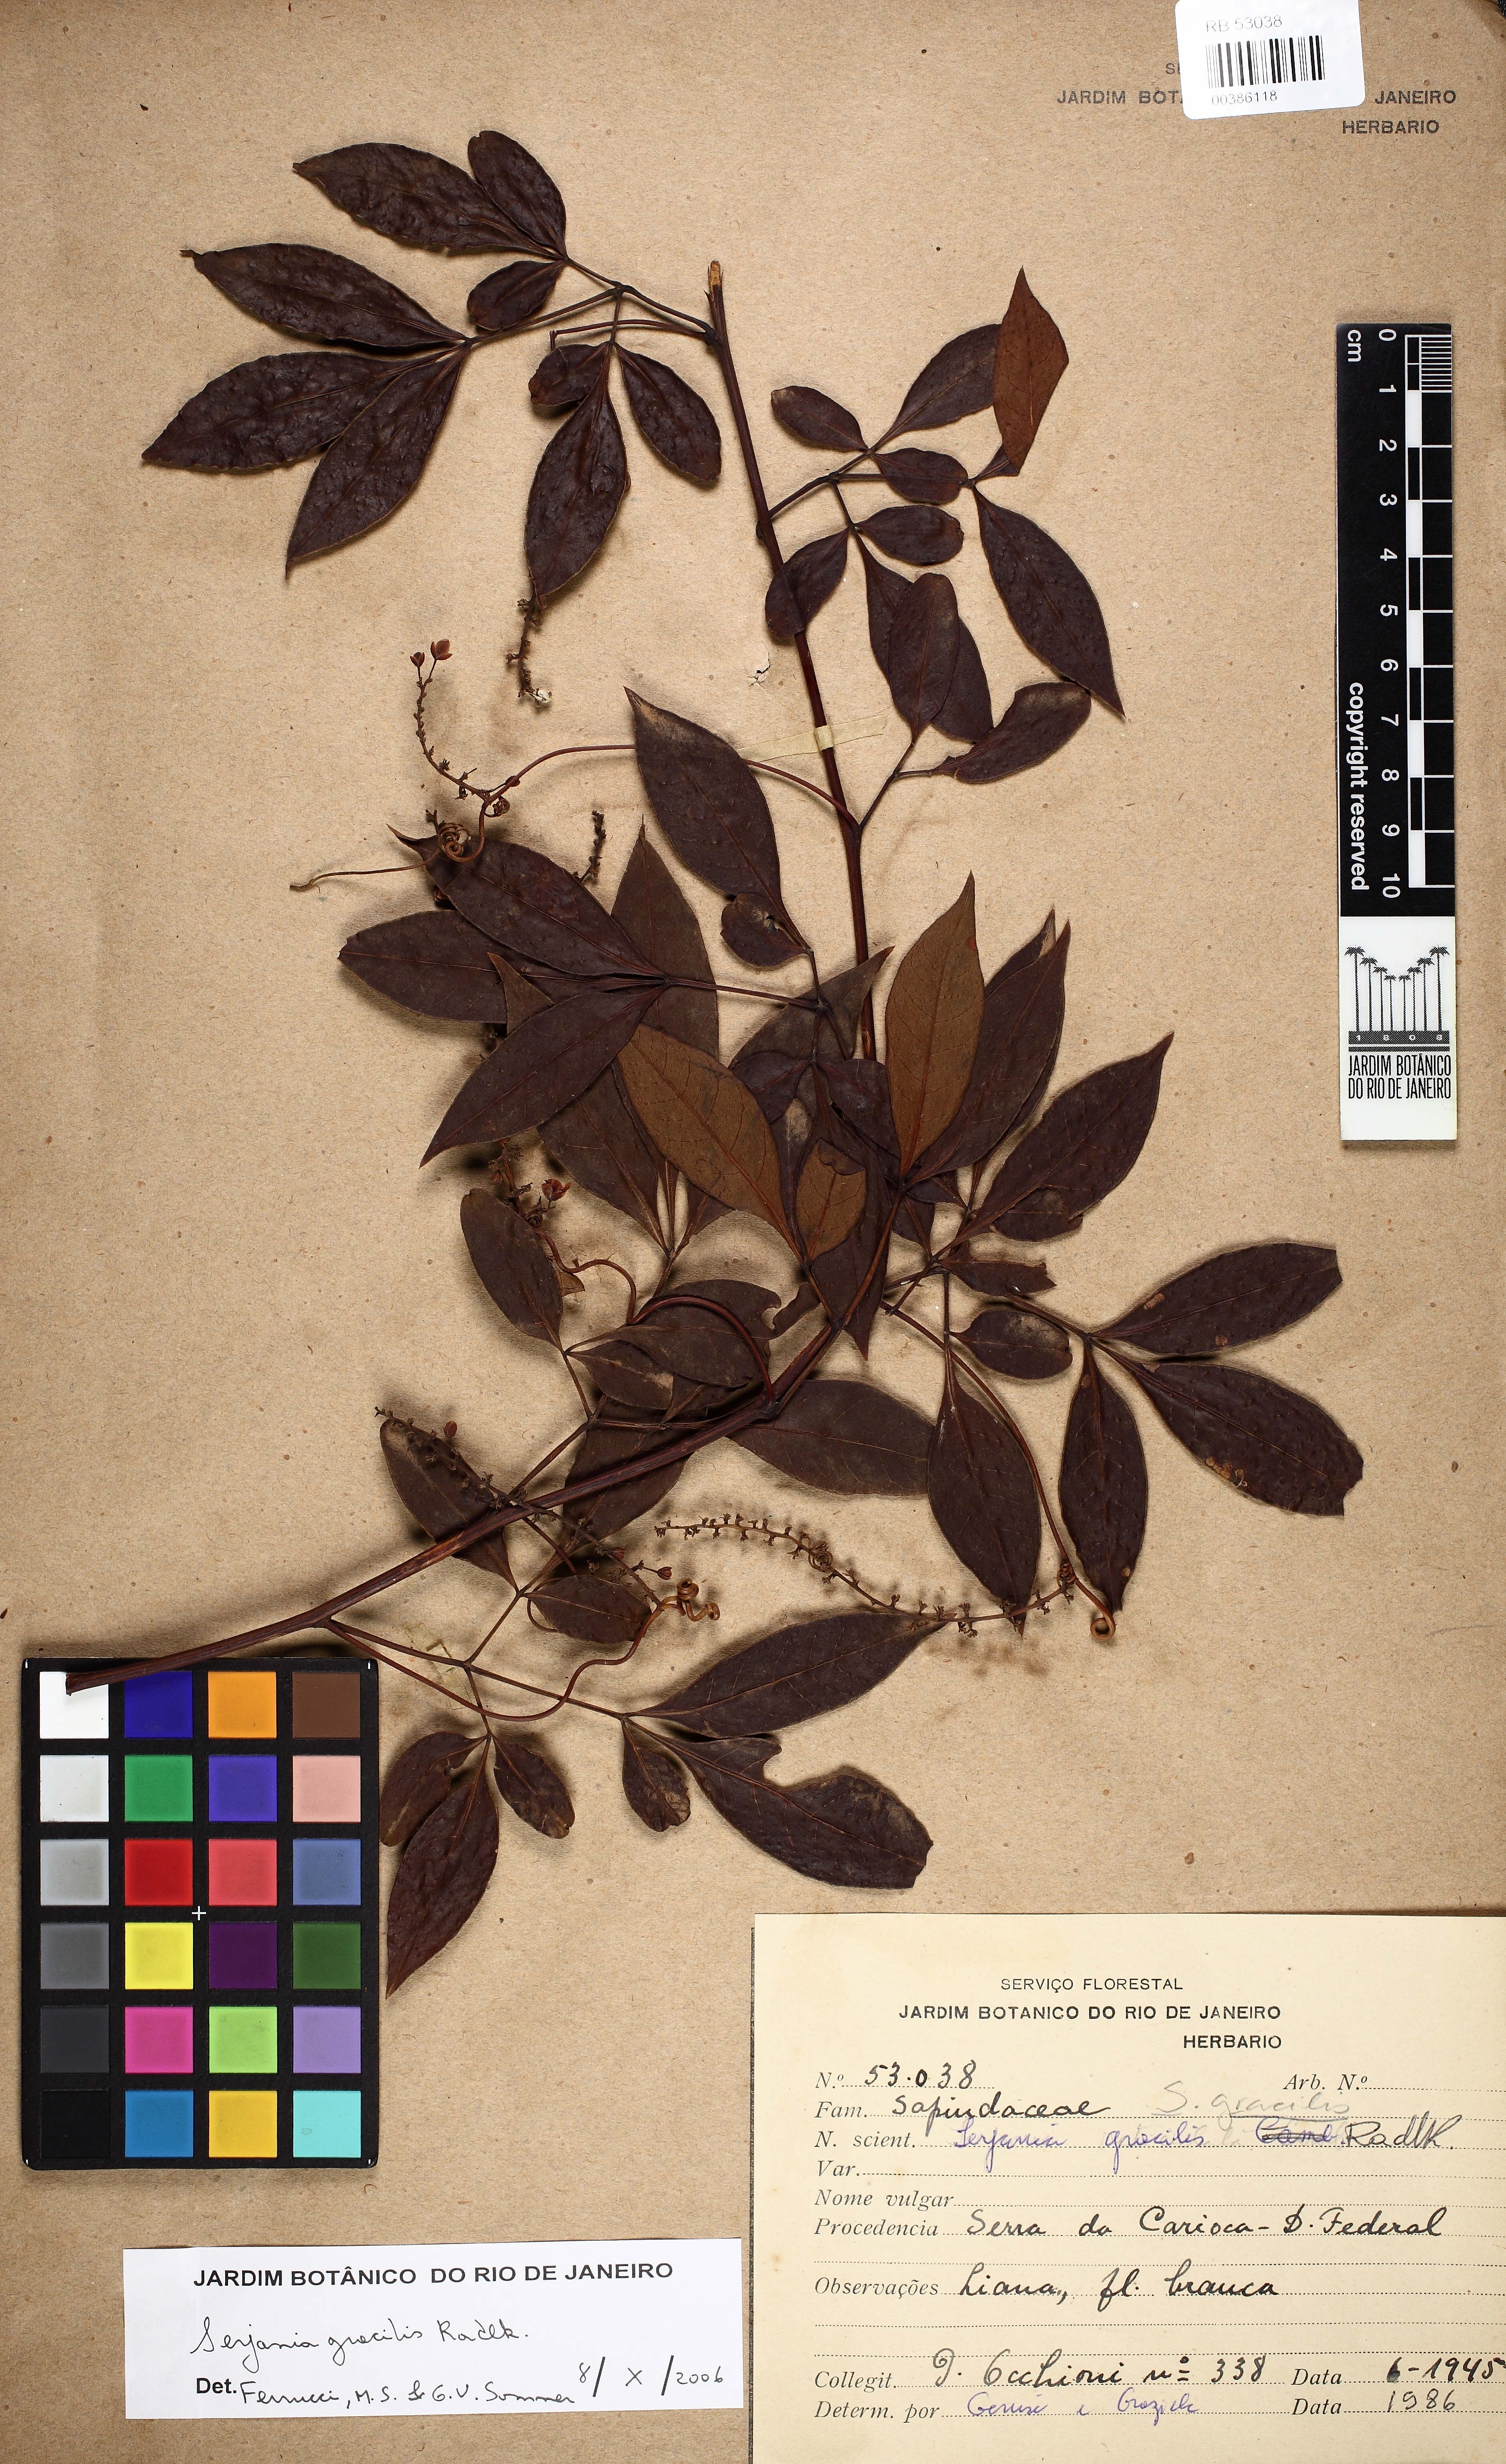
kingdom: Plantae
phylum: Tracheophyta
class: Magnoliopsida
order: Sapindales
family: Sapindaceae
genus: Serjania
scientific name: Serjania gracilis
